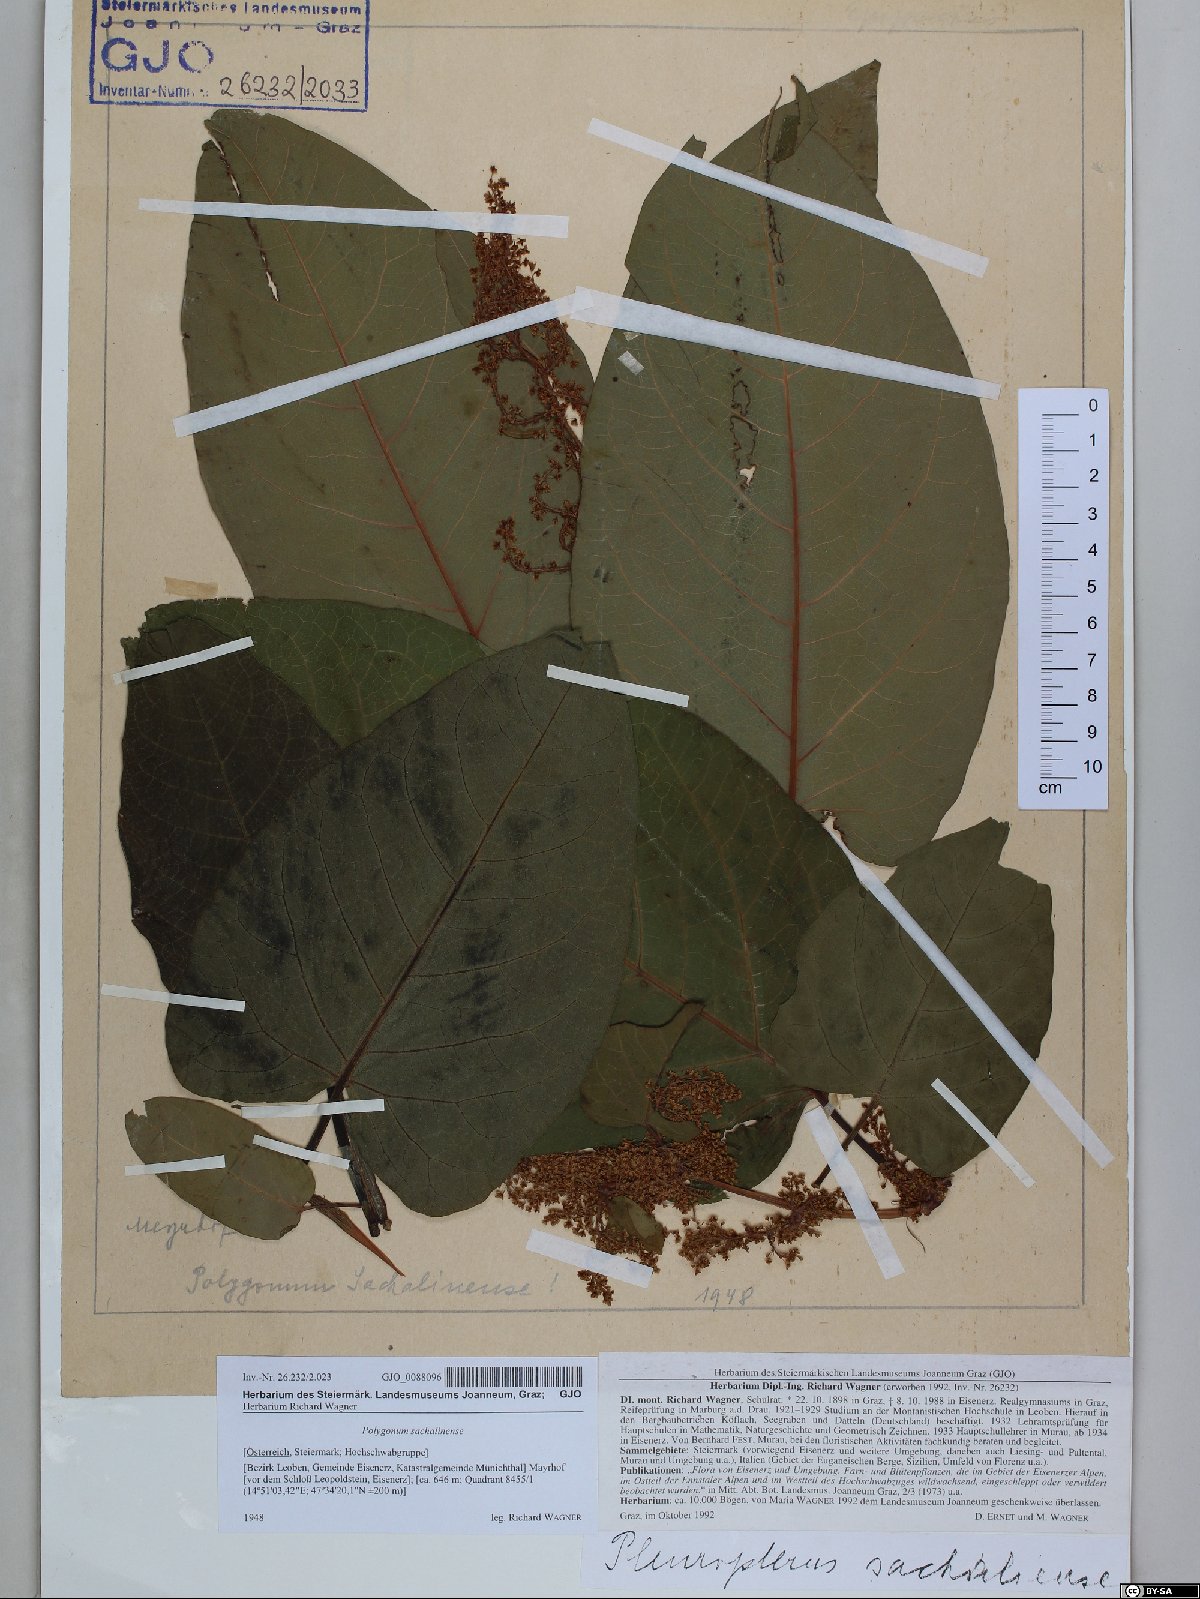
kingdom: Plantae
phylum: Tracheophyta
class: Magnoliopsida
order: Caryophyllales
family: Polygonaceae
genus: Reynoutria
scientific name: Reynoutria sachalinensis
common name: Giant knotweed
